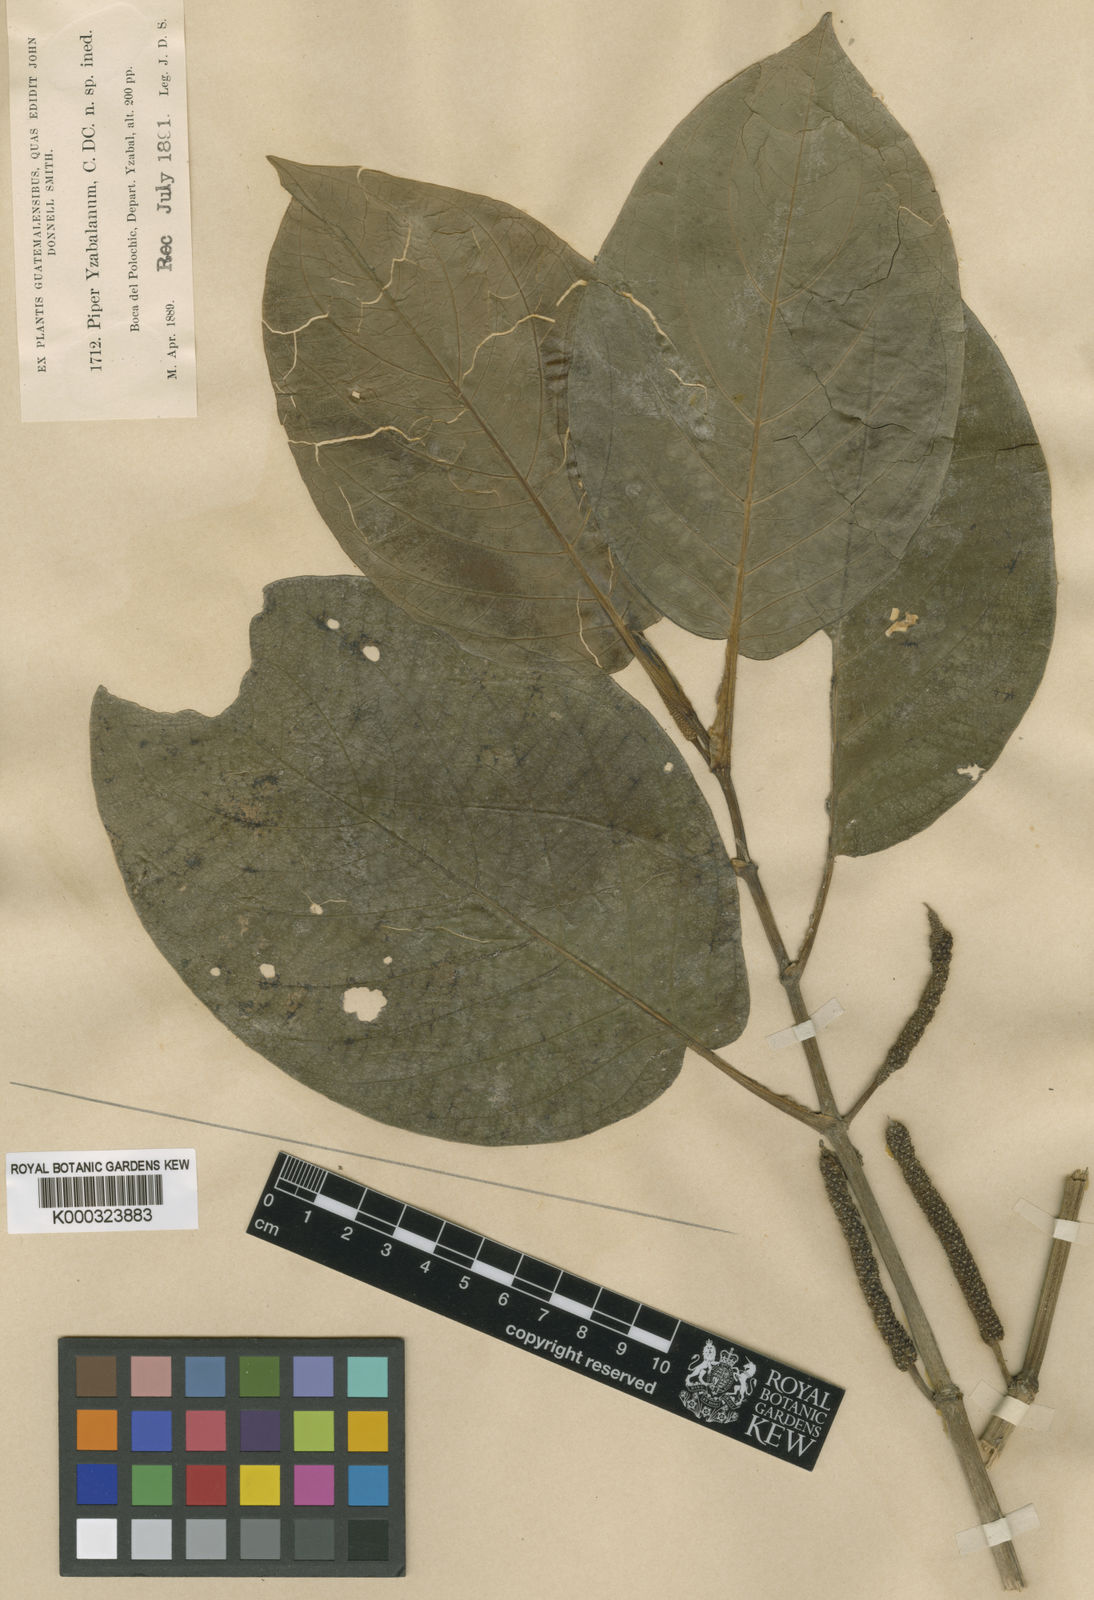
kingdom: Plantae
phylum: Tracheophyta
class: Magnoliopsida
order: Piperales
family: Piperaceae
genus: Piper
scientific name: Piper chinantlense
